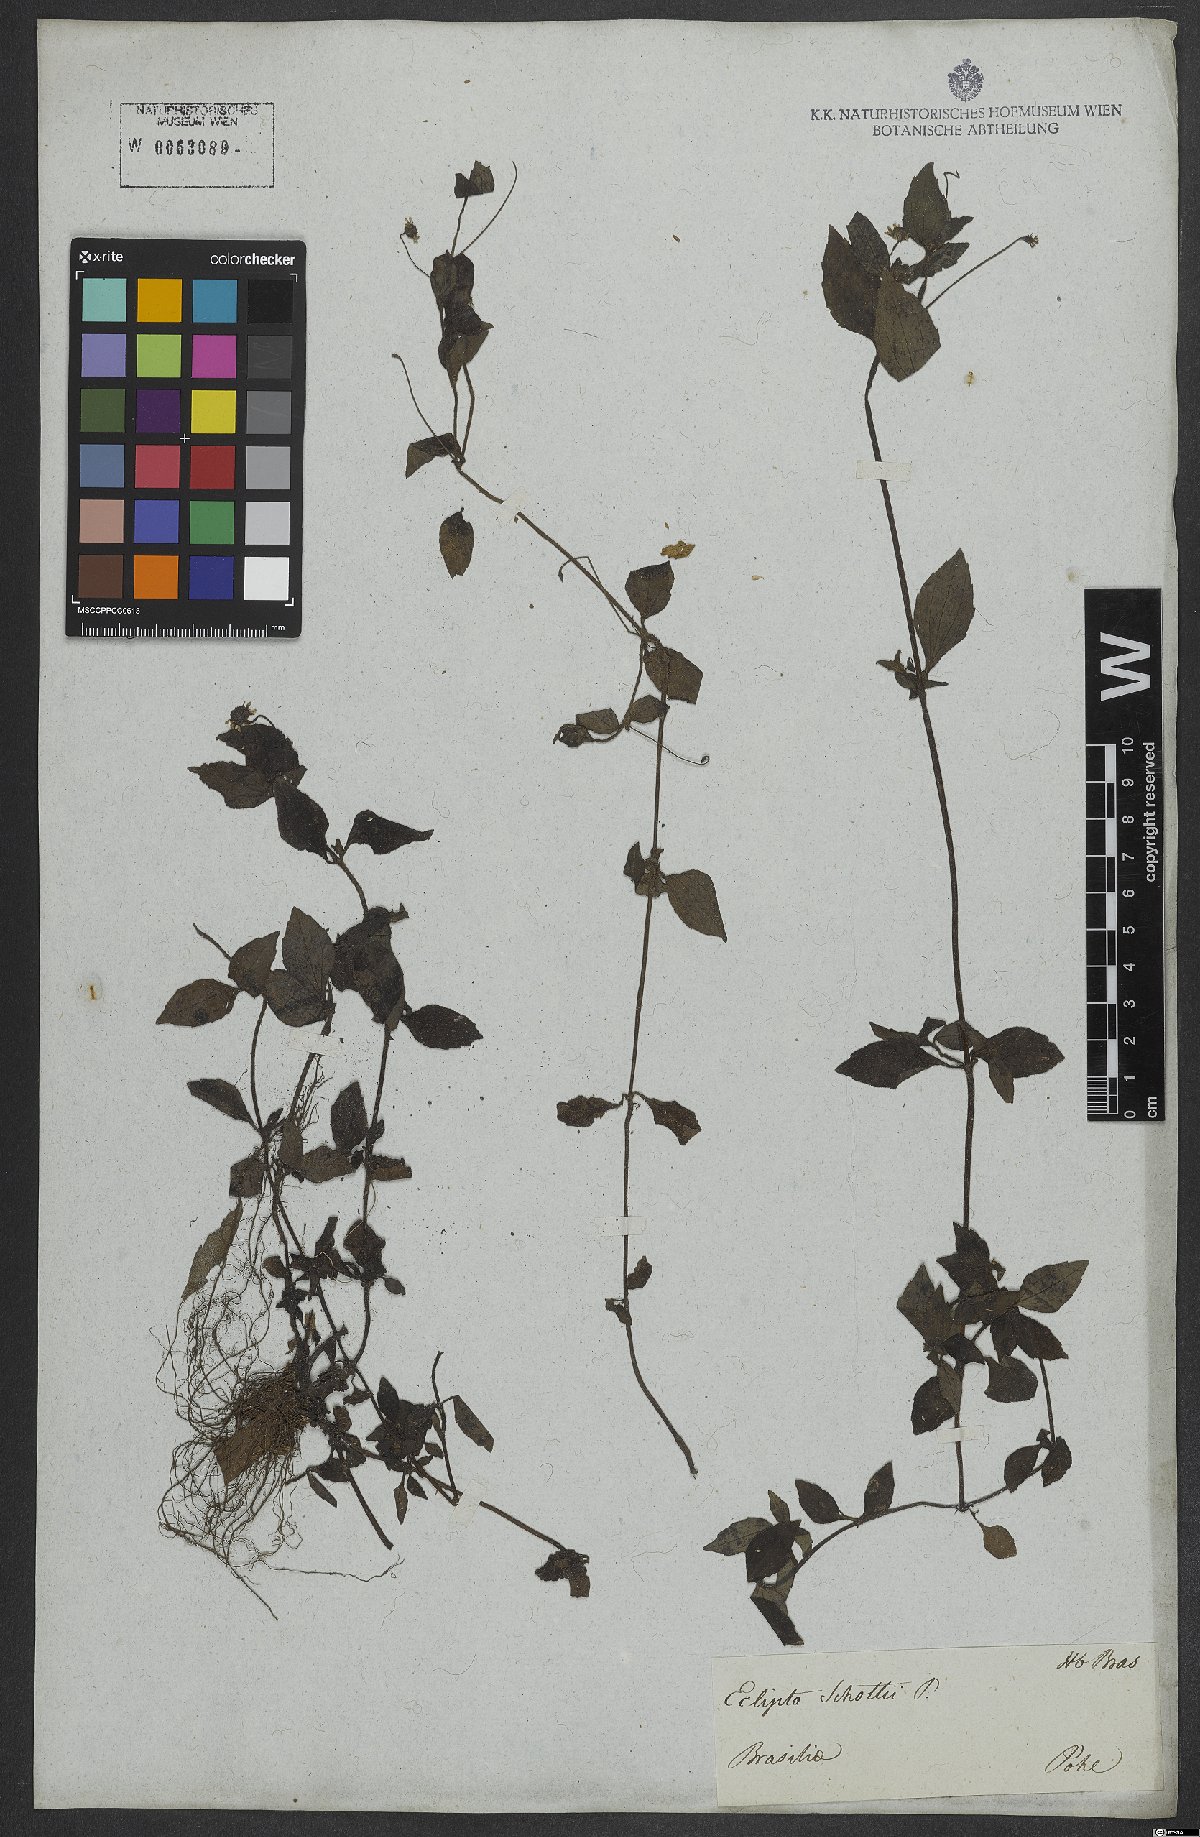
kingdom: Plantae
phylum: Tracheophyta
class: Magnoliopsida
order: Asterales
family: Asteraceae
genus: Eclipta
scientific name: Eclipta alba
